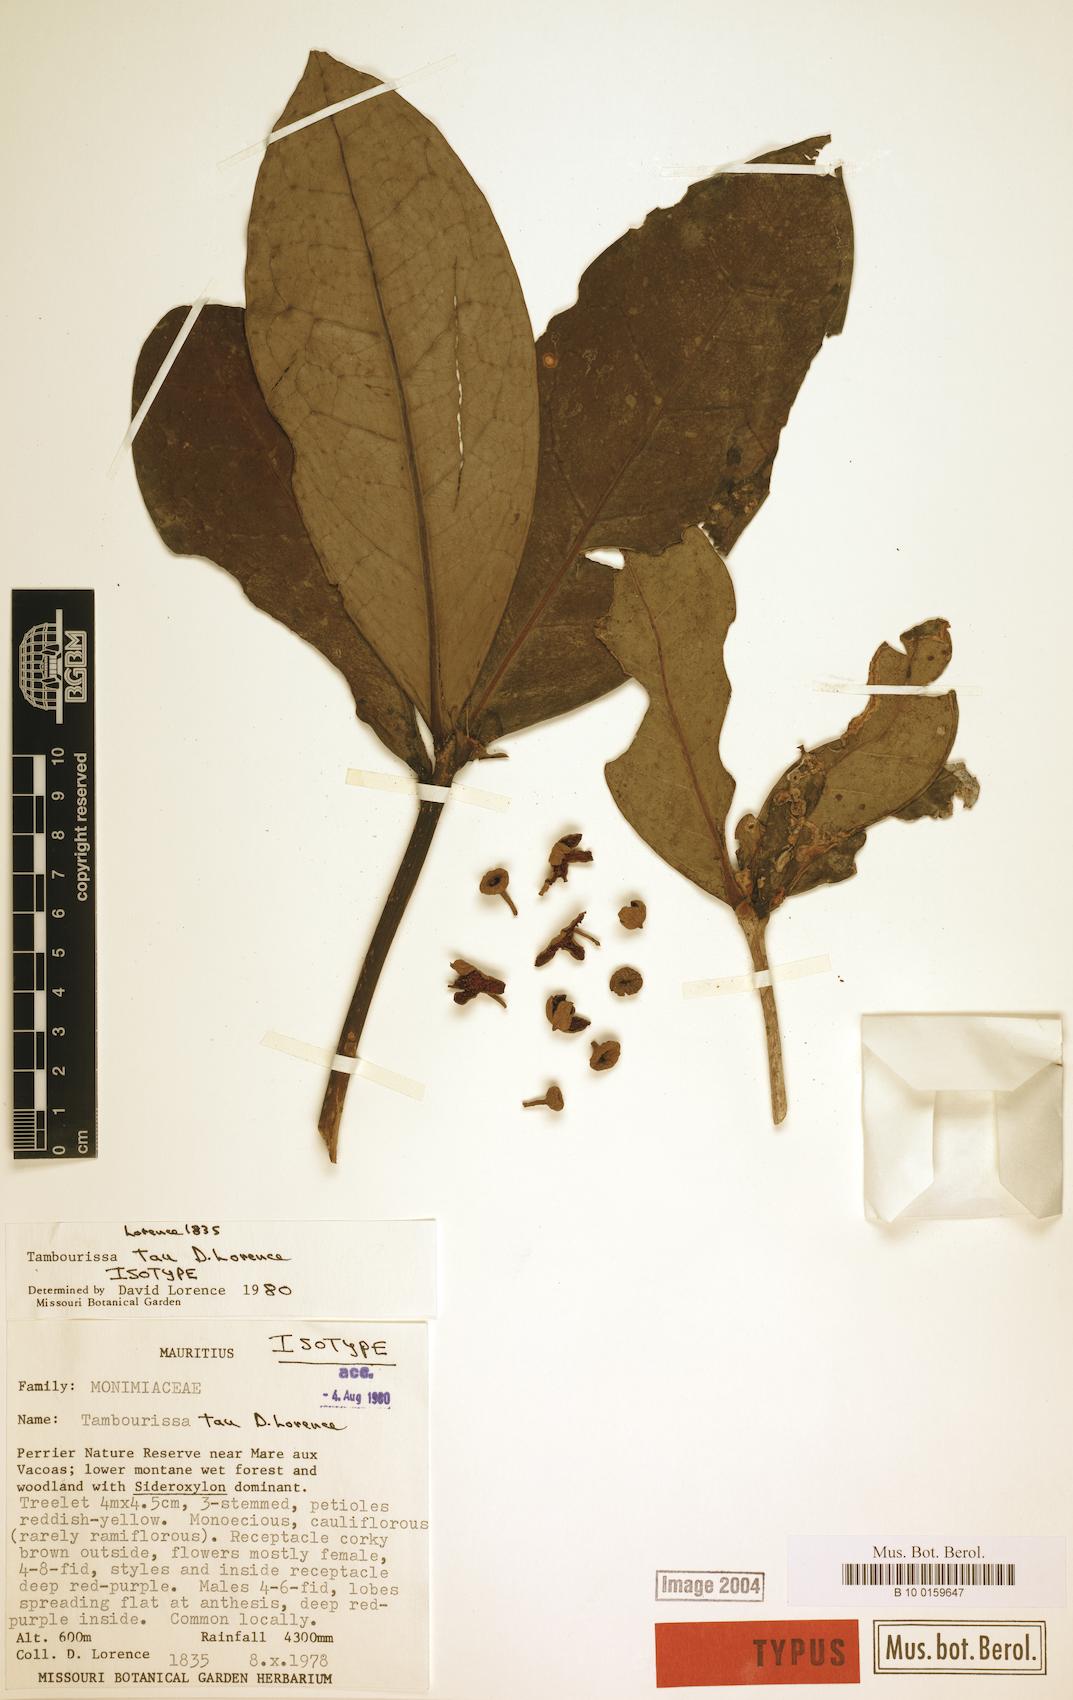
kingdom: Plantae
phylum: Tracheophyta
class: Magnoliopsida
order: Laurales
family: Monimiaceae
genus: Tambourissa
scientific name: Tambourissa tau
